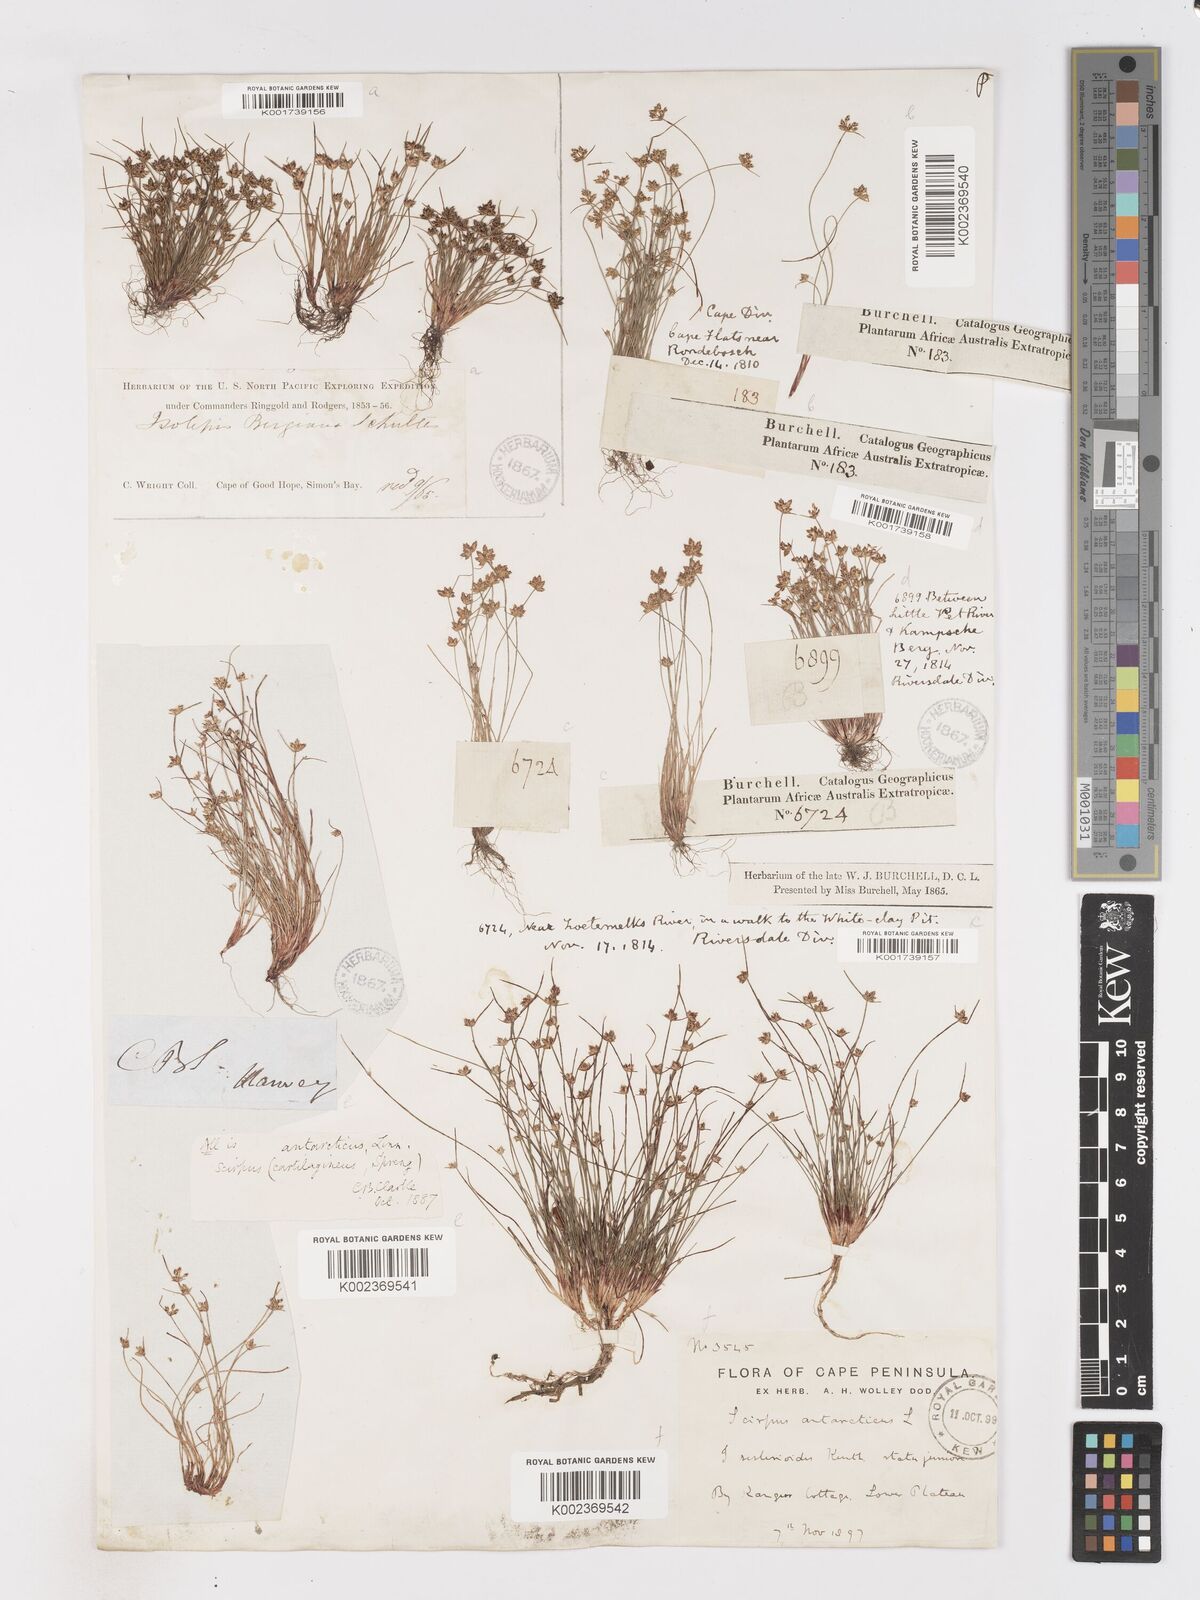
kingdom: Plantae
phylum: Tracheophyta
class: Liliopsida
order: Poales
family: Cyperaceae
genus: Isolepis
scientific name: Isolepis marginata
